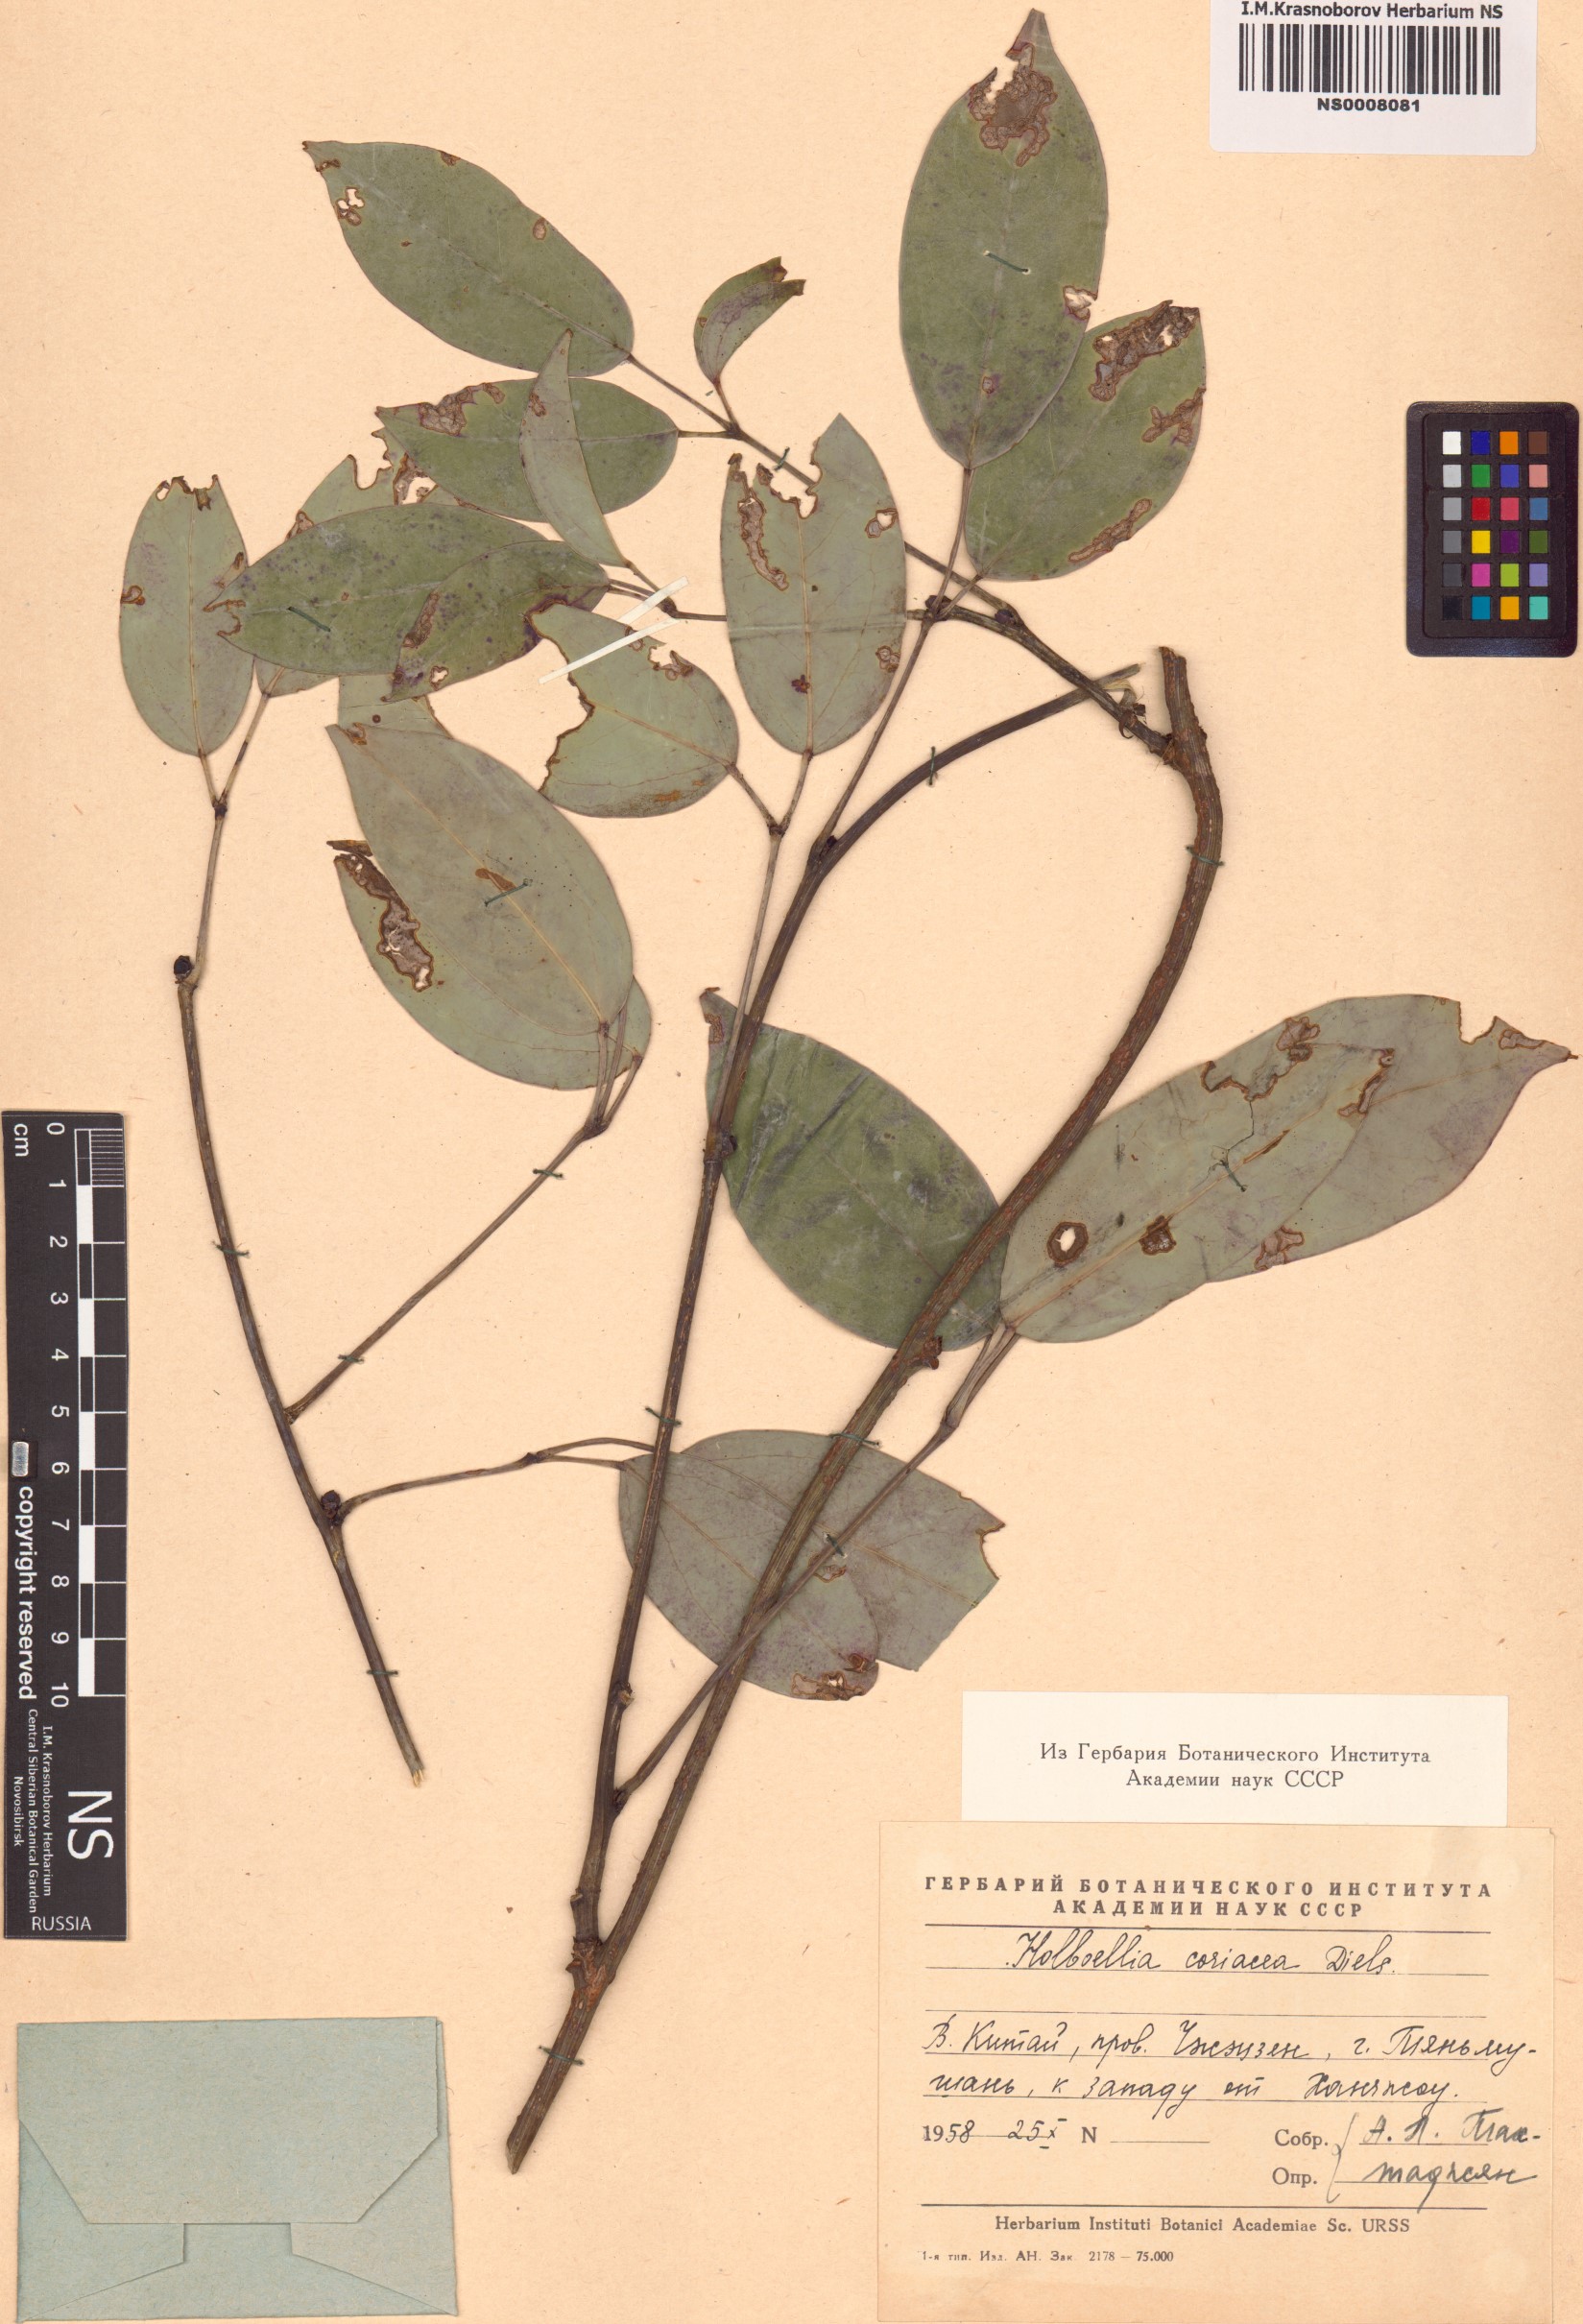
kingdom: Plantae
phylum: Tracheophyta
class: Magnoliopsida
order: Ranunculales
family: Lardizabalaceae
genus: Stauntonia
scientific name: Stauntonia coriacea
